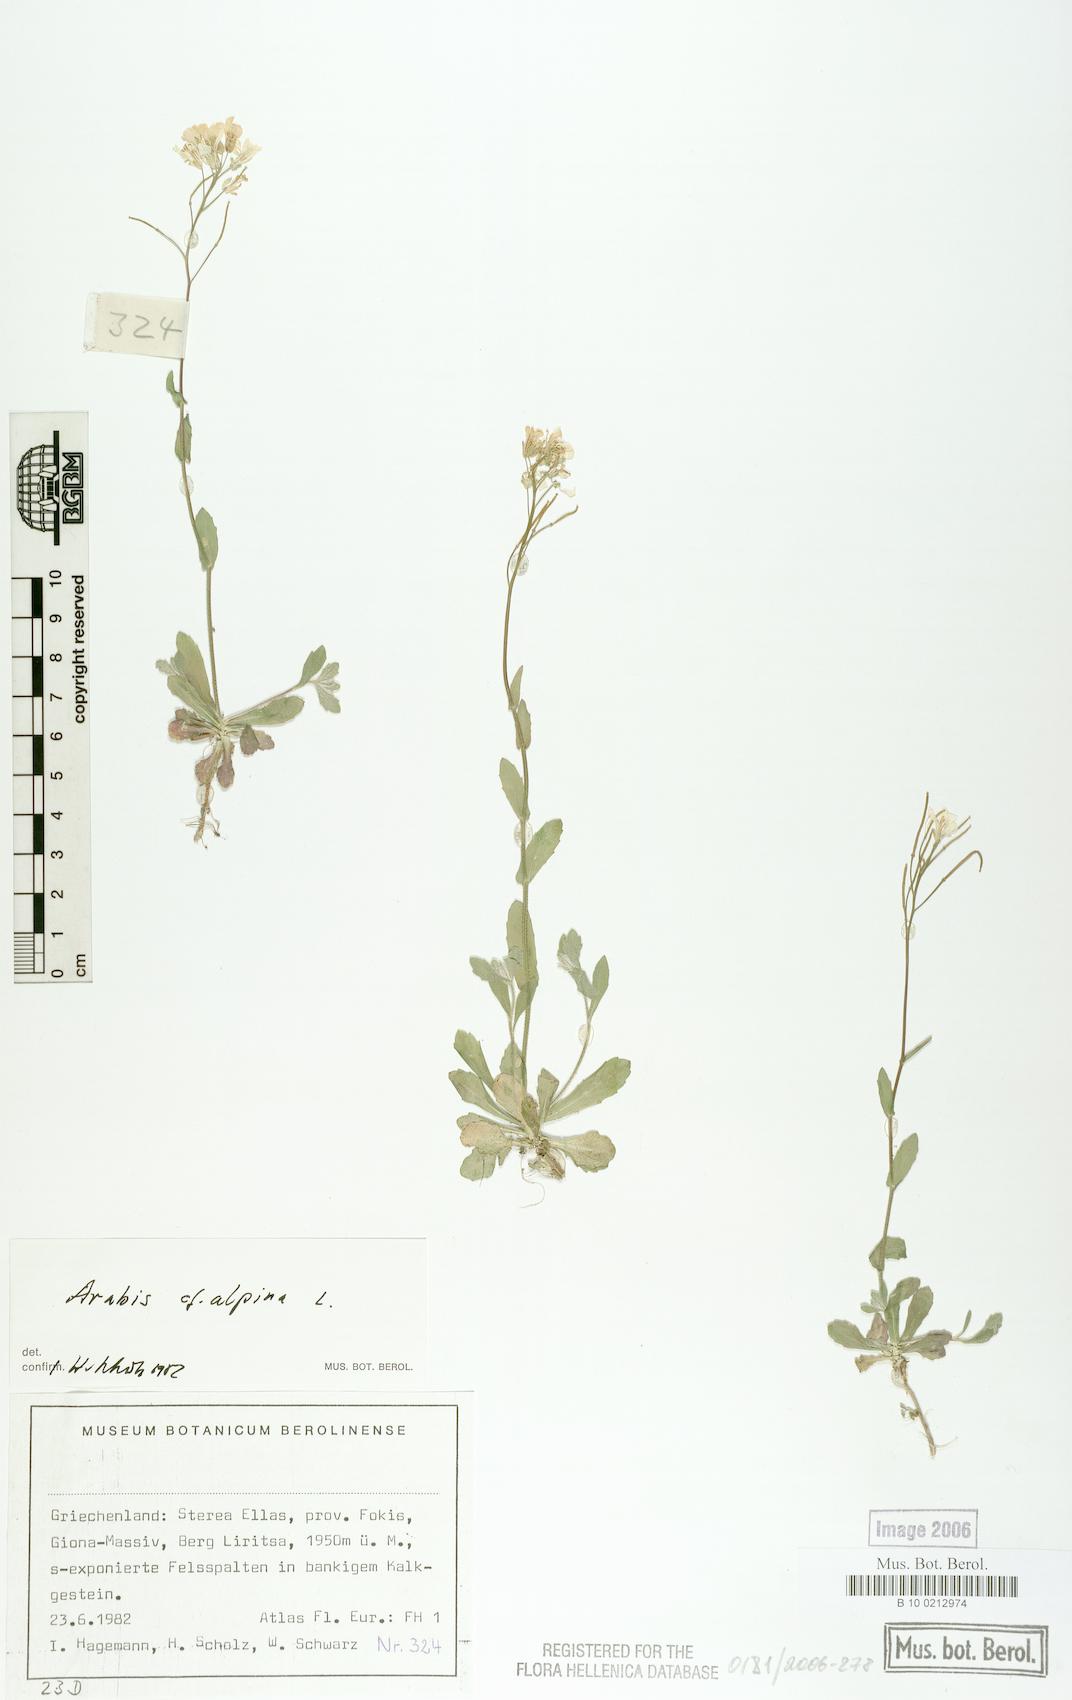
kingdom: Plantae
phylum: Tracheophyta
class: Magnoliopsida
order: Brassicales
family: Brassicaceae
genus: Arabis
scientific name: Arabis alpina
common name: Alpine rock-cress
